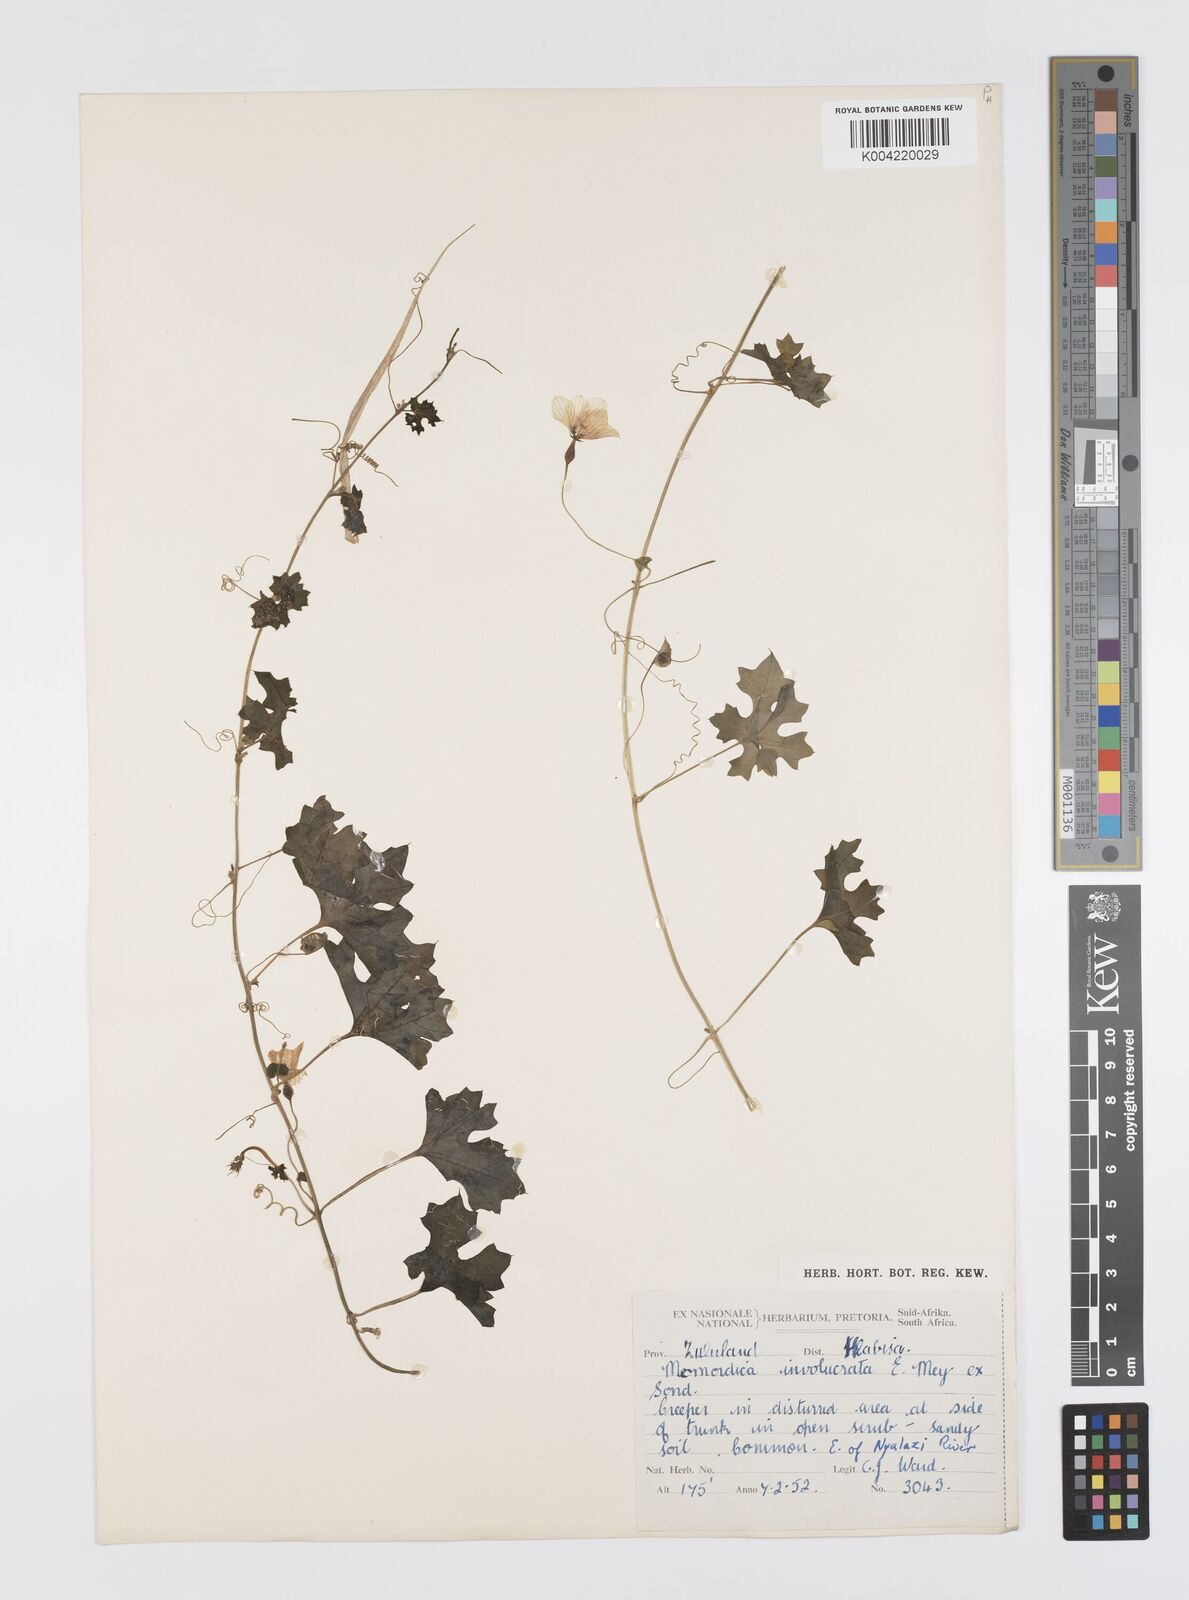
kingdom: Plantae
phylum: Tracheophyta
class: Magnoliopsida
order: Cucurbitales
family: Cucurbitaceae
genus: Momordica
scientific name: Momordica balsamina
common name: Southern balsampear
